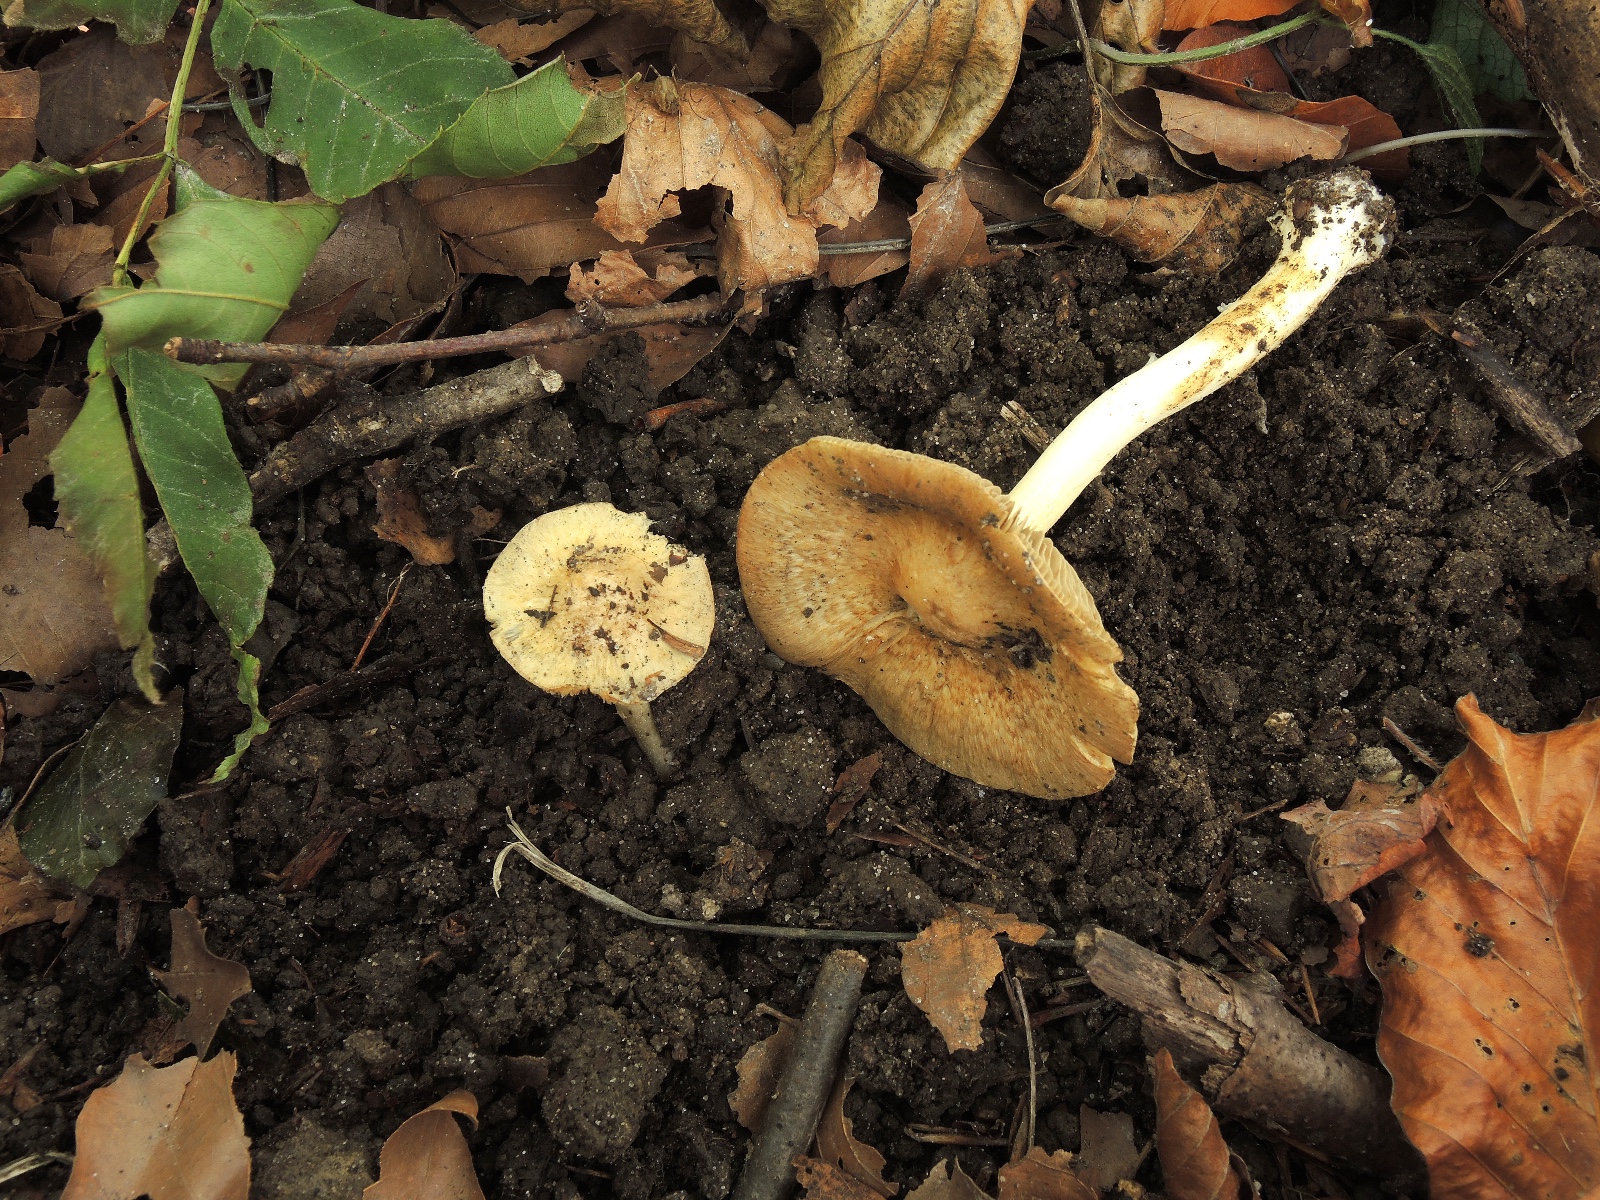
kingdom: Fungi
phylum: Basidiomycota
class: Agaricomycetes
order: Agaricales
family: Inocybaceae
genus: Inocybe
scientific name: Inocybe
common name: trævlhat
